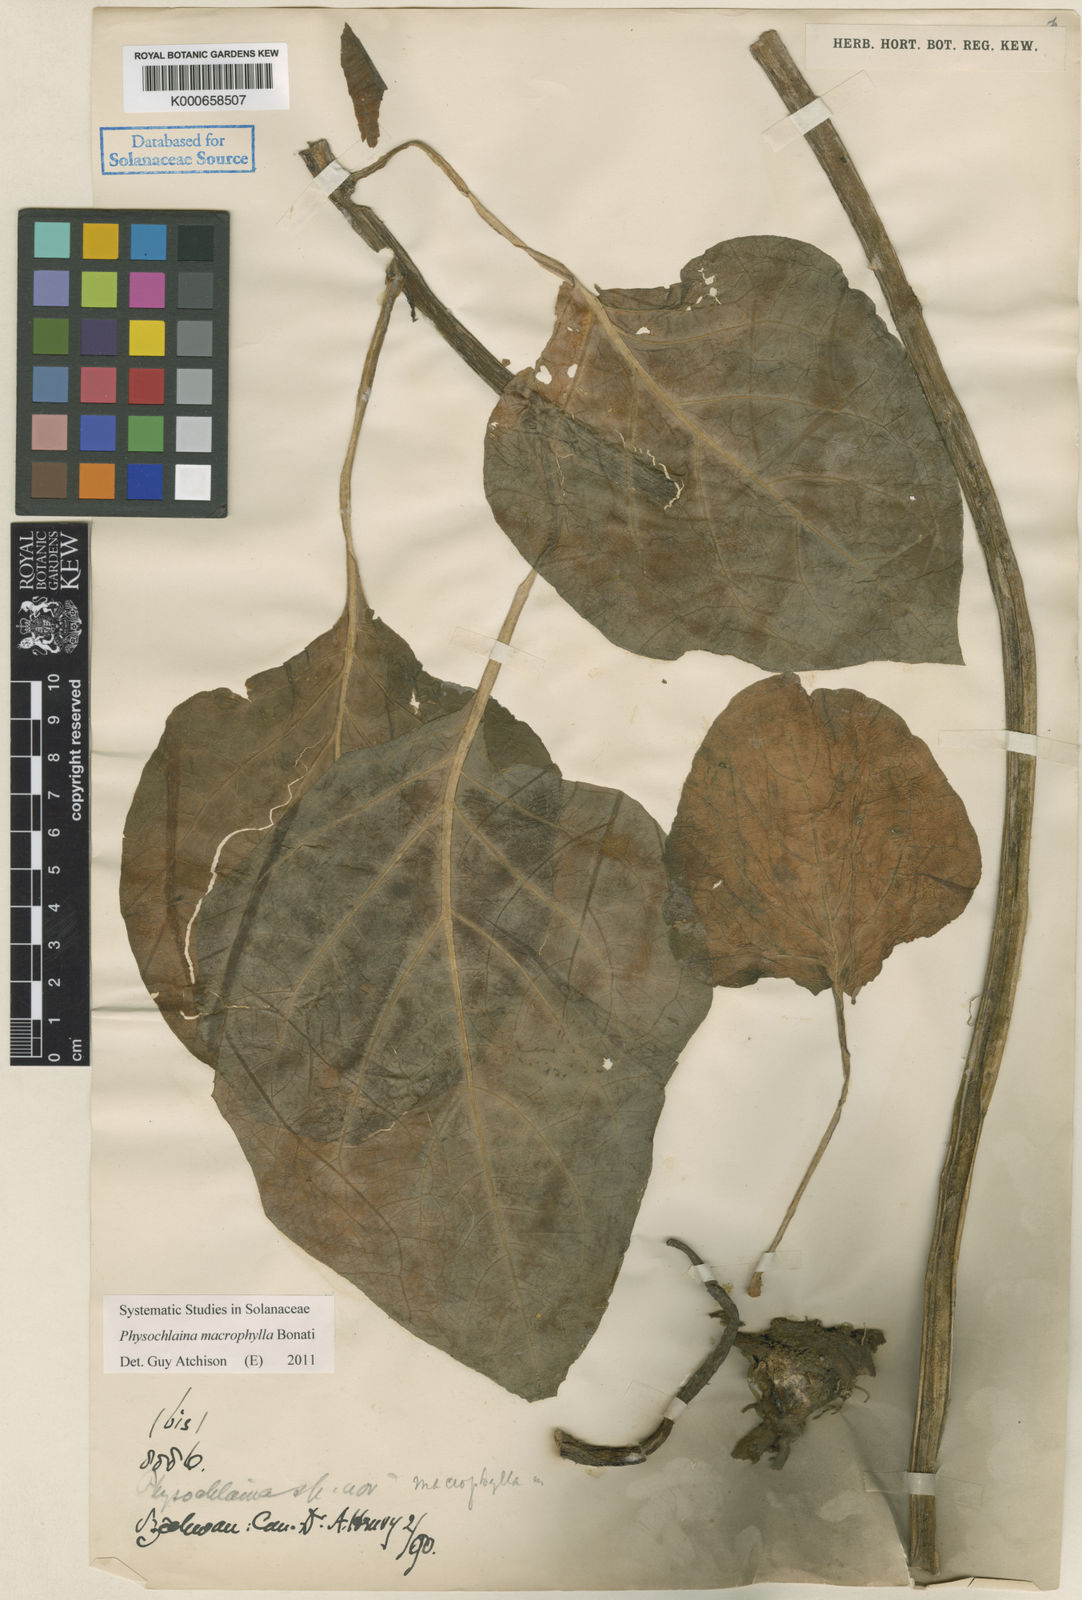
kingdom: Plantae
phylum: Tracheophyta
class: Magnoliopsida
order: Solanales
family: Solanaceae
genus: Physochlaina
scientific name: Physochlaina macrophylla
